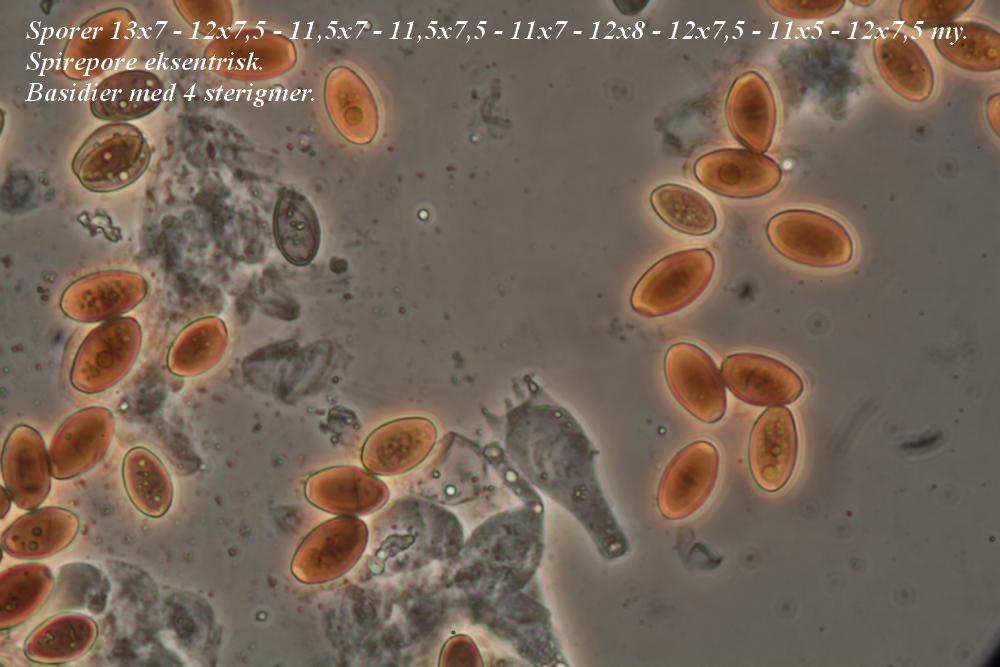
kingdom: Fungi
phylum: Basidiomycota
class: Agaricomycetes
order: Agaricales
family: Psathyrellaceae
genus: Tulosesus
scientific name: Tulosesus congregatus
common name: klynge-blækhat
